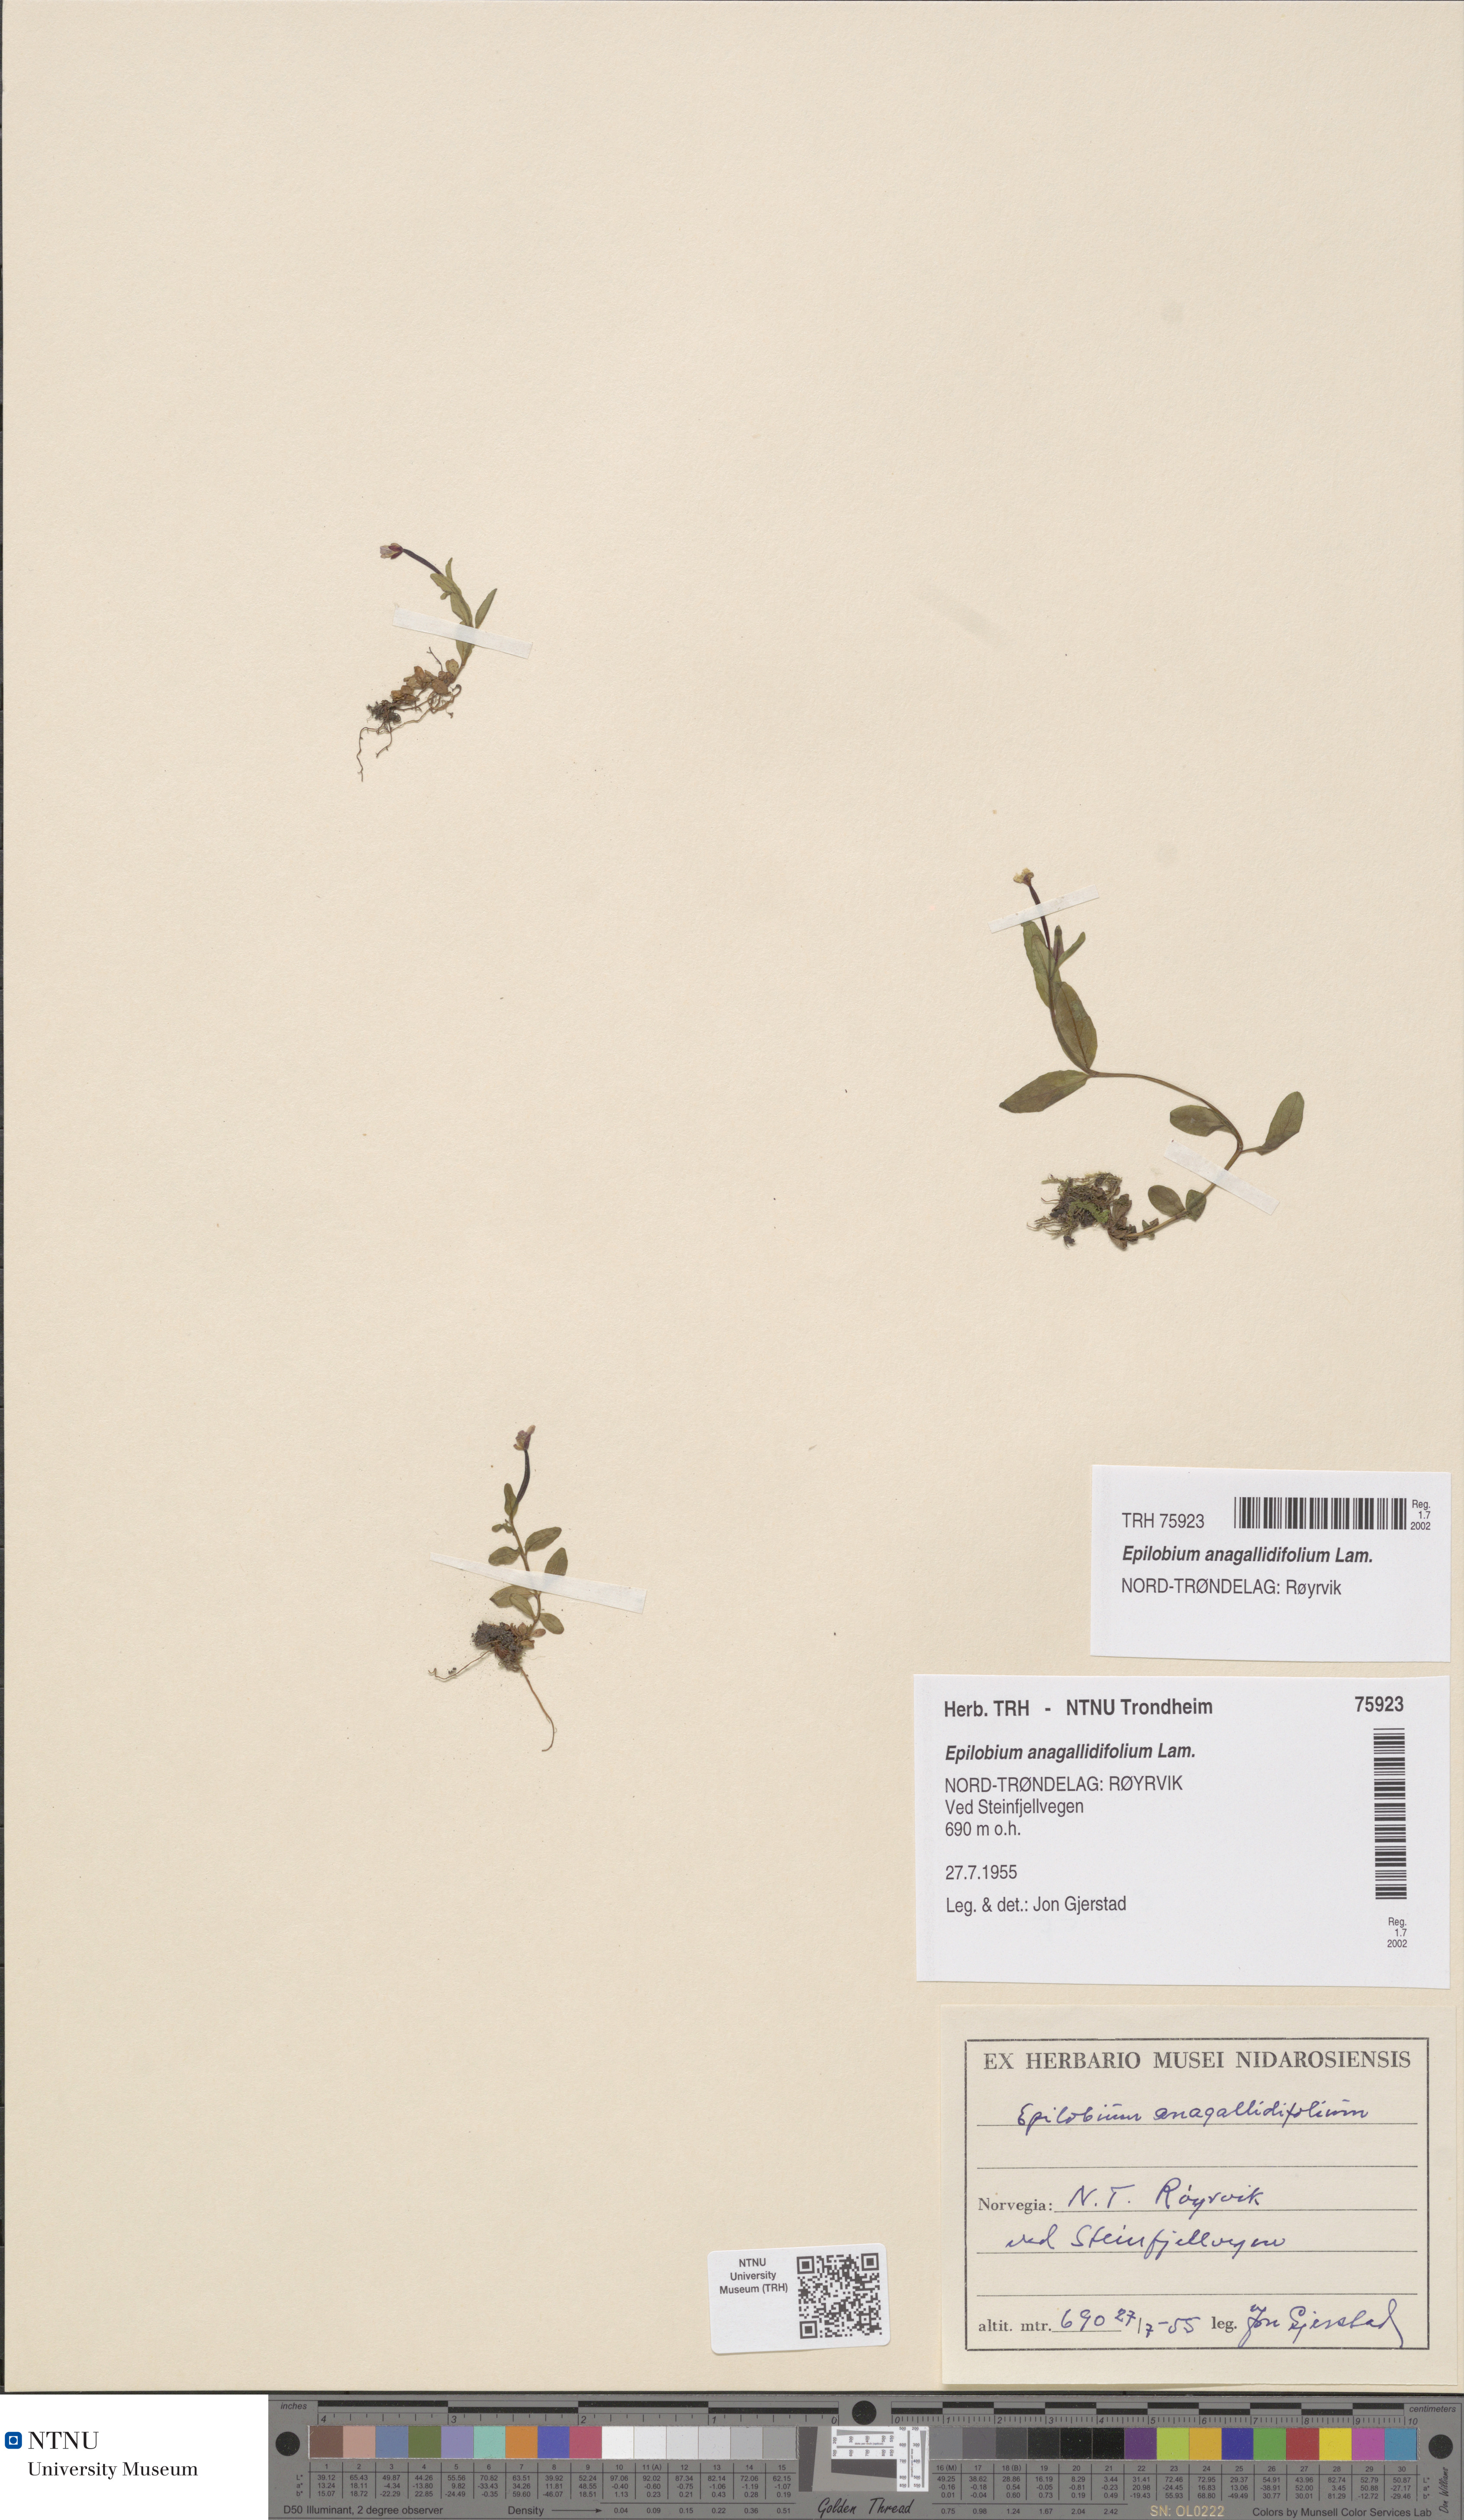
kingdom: Plantae
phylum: Tracheophyta
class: Magnoliopsida
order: Myrtales
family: Onagraceae
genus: Epilobium
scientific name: Epilobium anagallidifolium
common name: Alpine willowherb
